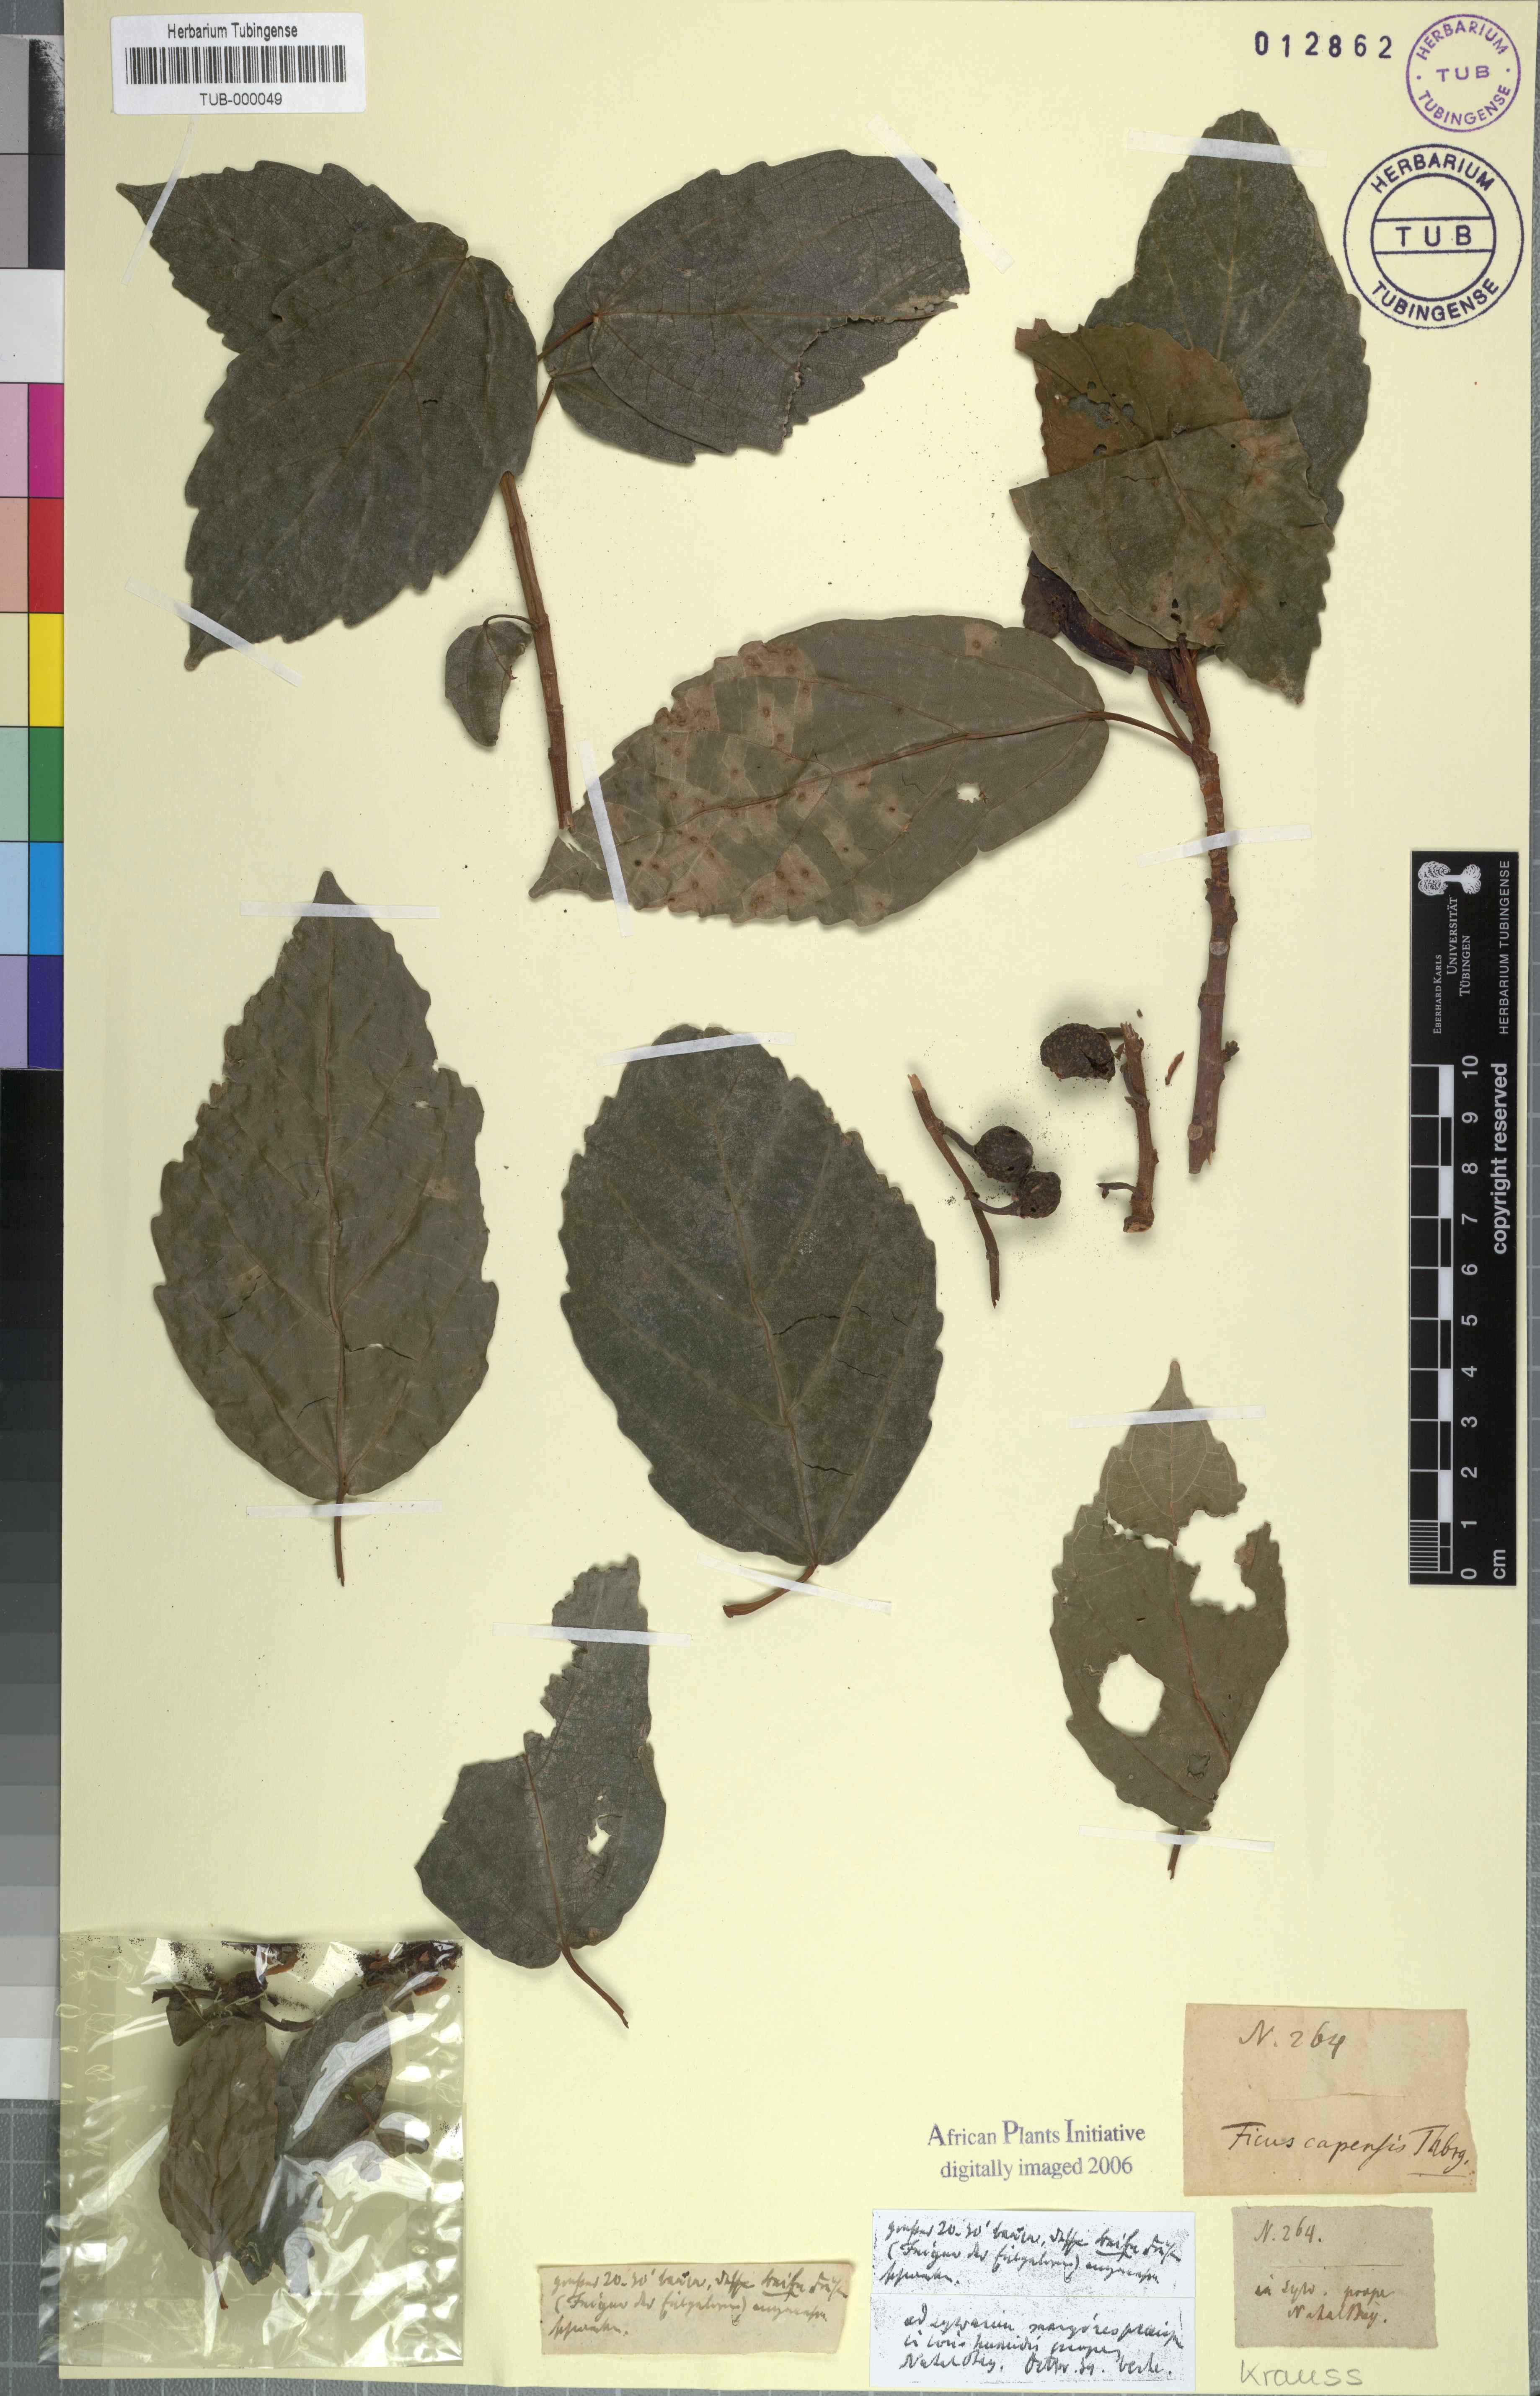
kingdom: Plantae
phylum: Tracheophyta
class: Magnoliopsida
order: Rosales
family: Moraceae
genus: Ficus
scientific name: Ficus sur
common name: Cape fig
